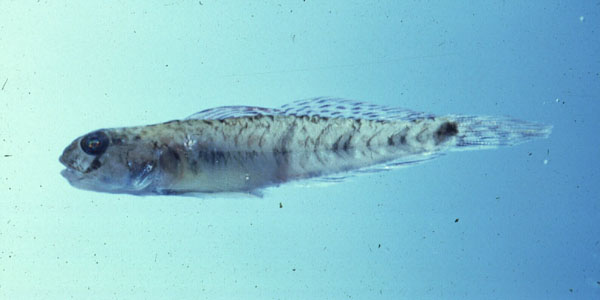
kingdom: Animalia
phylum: Chordata
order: Perciformes
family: Gobiidae
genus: Oligolepis
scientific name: Oligolepis keiensis
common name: Kei goby
